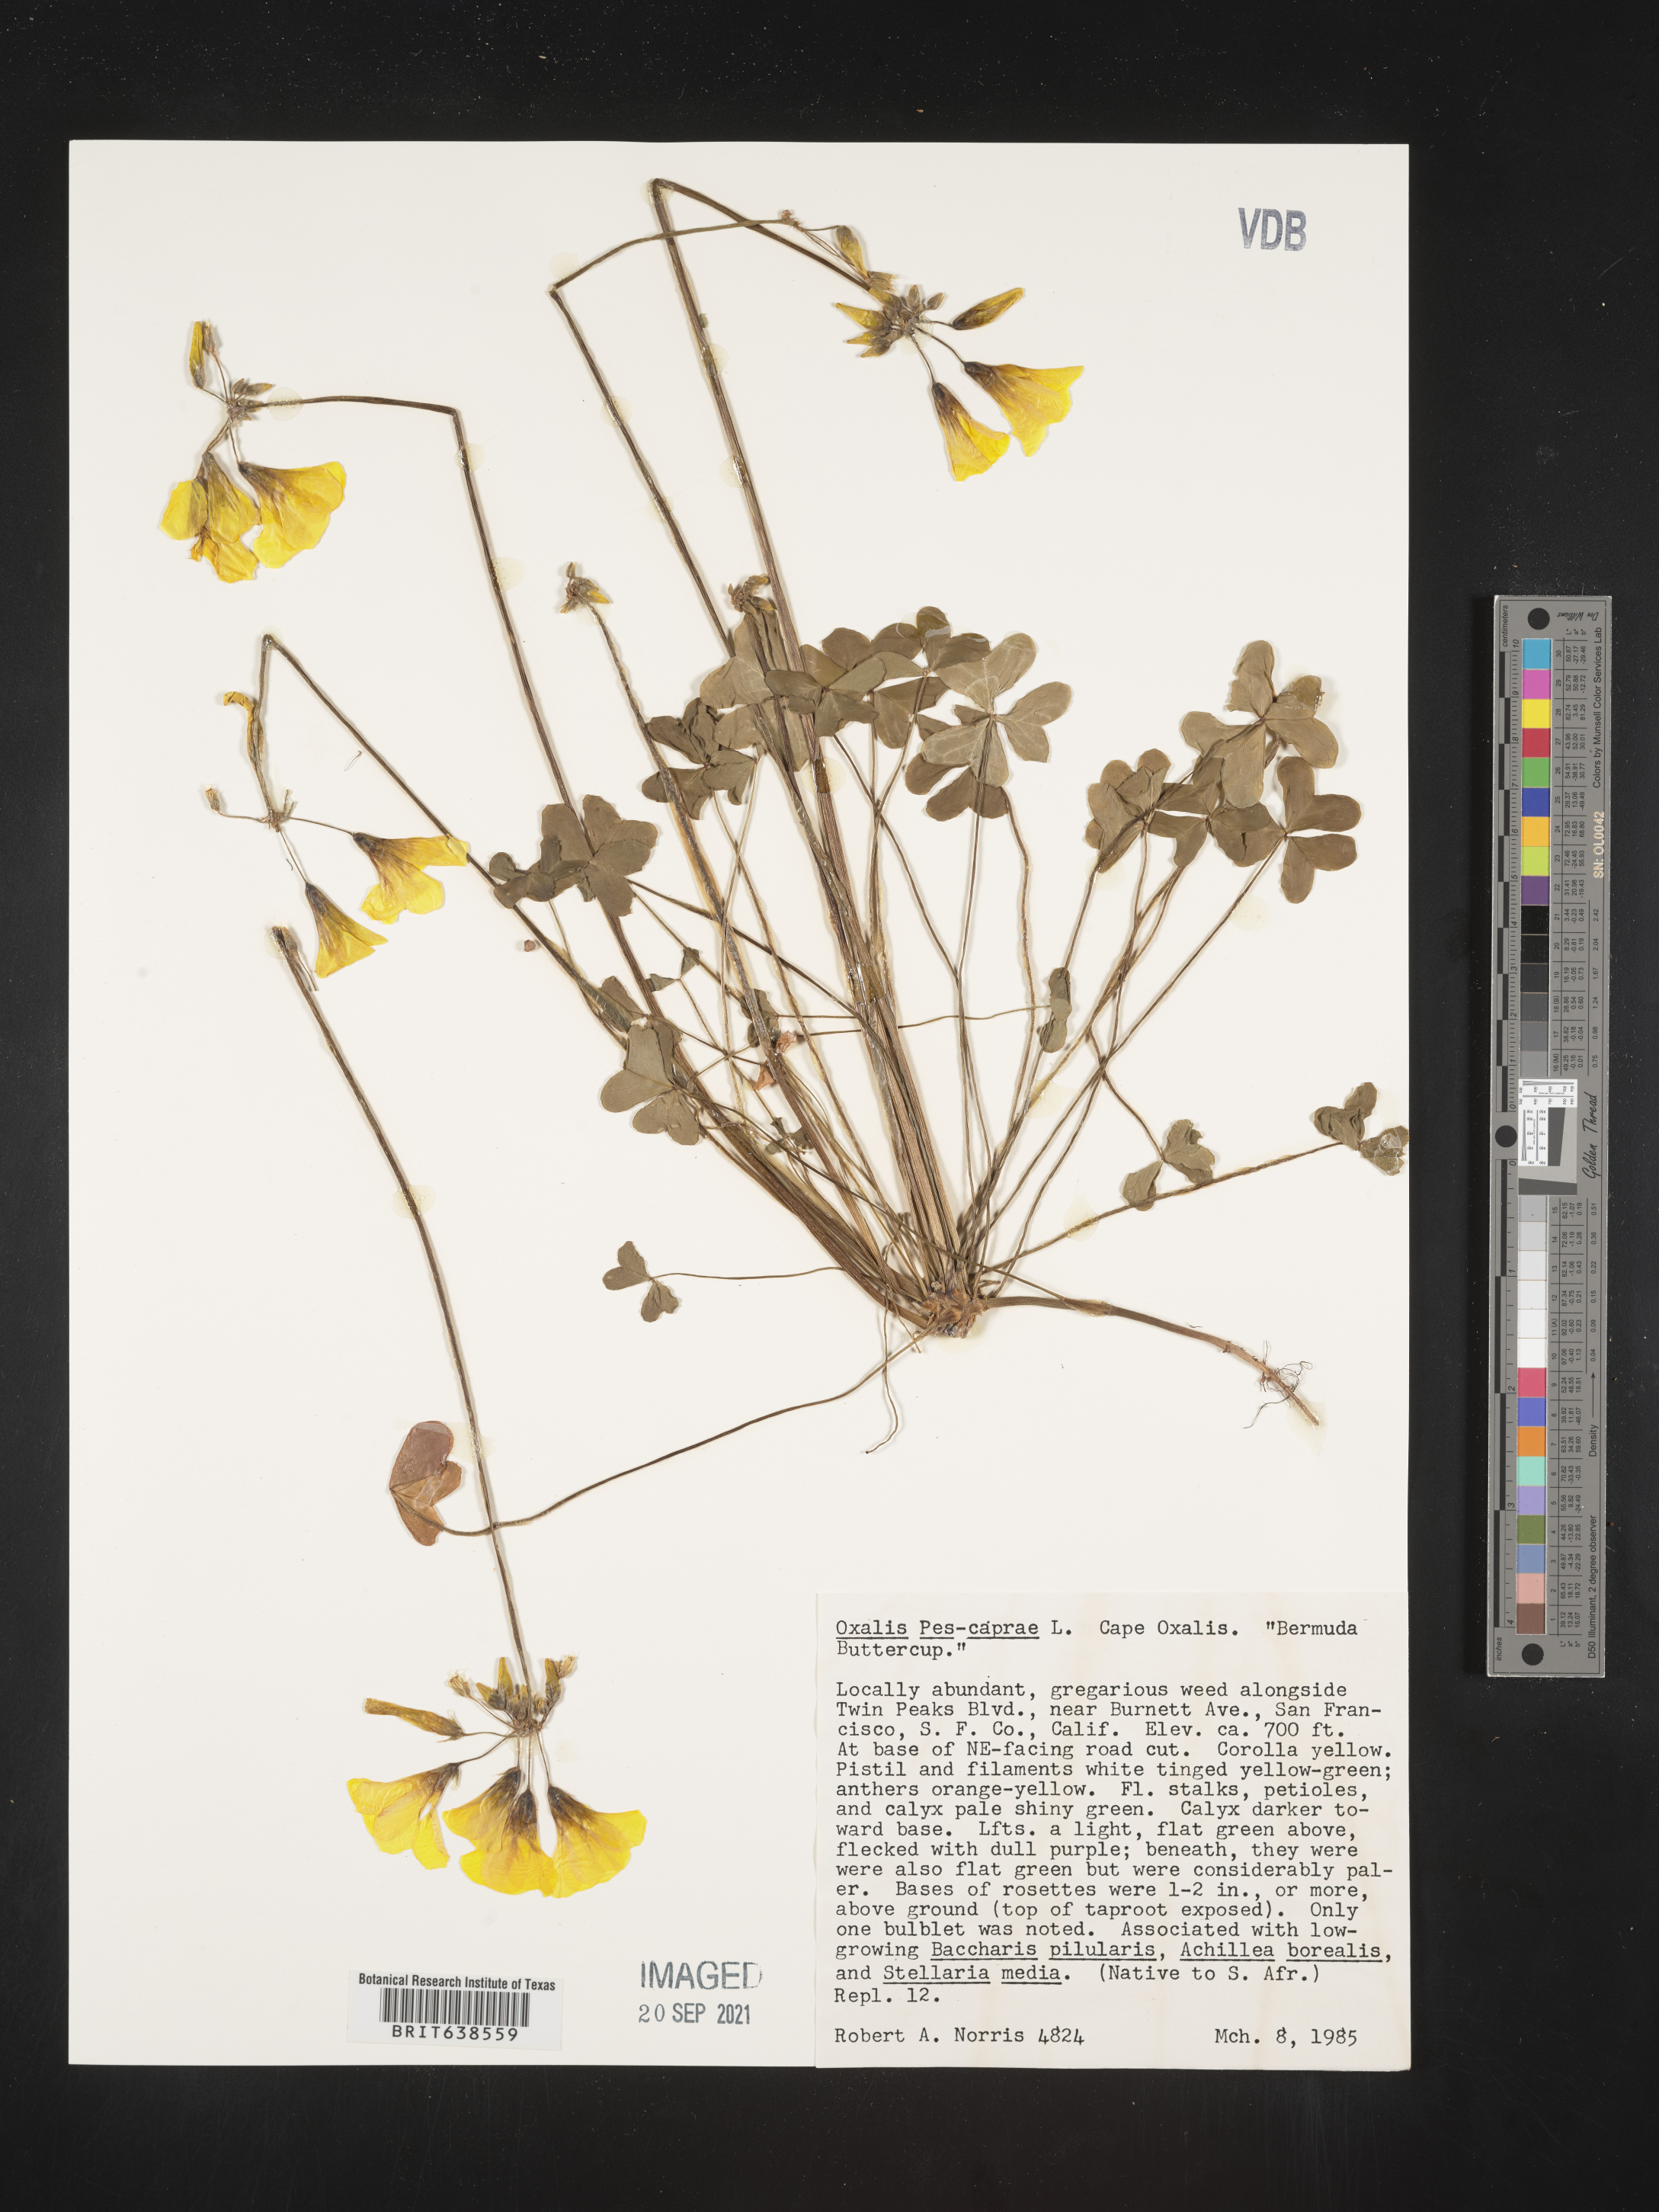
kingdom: Plantae
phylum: Tracheophyta
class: Magnoliopsida
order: Oxalidales
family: Oxalidaceae
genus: Oxalis
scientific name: Oxalis pes-caprae
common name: Bermuda-buttercup
